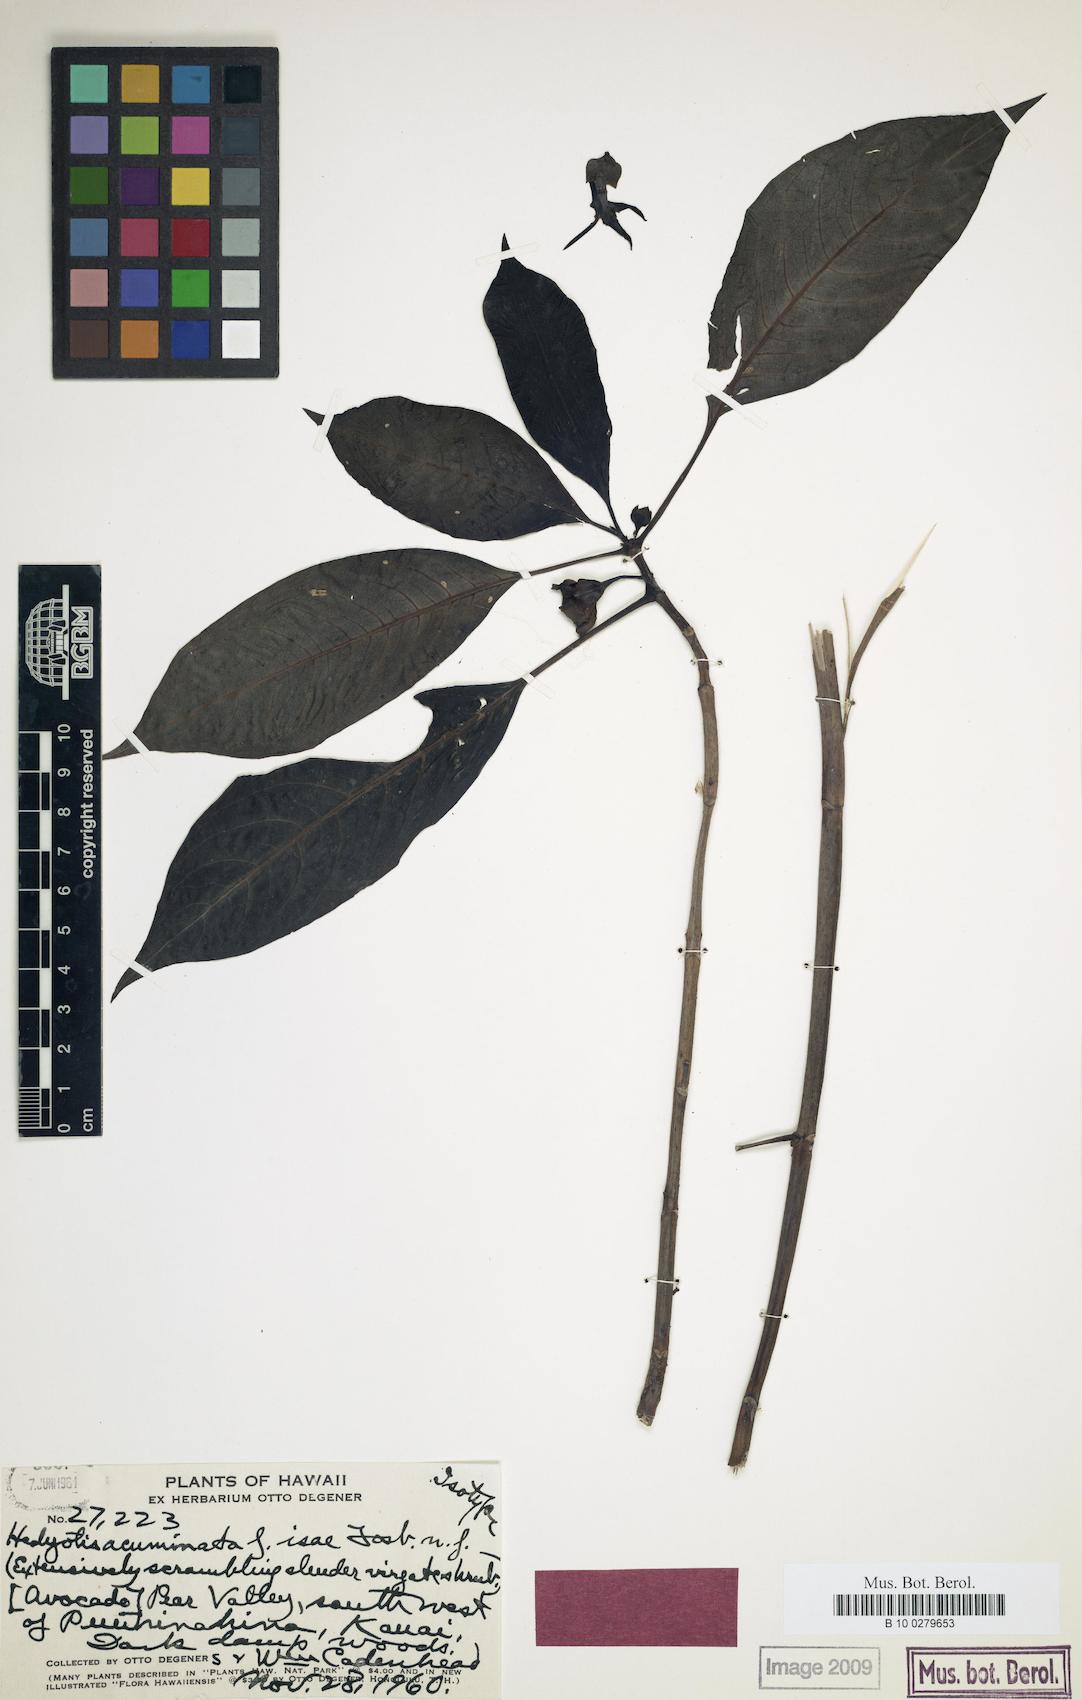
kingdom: Plantae
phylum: Tracheophyta
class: Magnoliopsida
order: Gentianales
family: Rubiaceae
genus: Kadua
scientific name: Kadua acuminata
